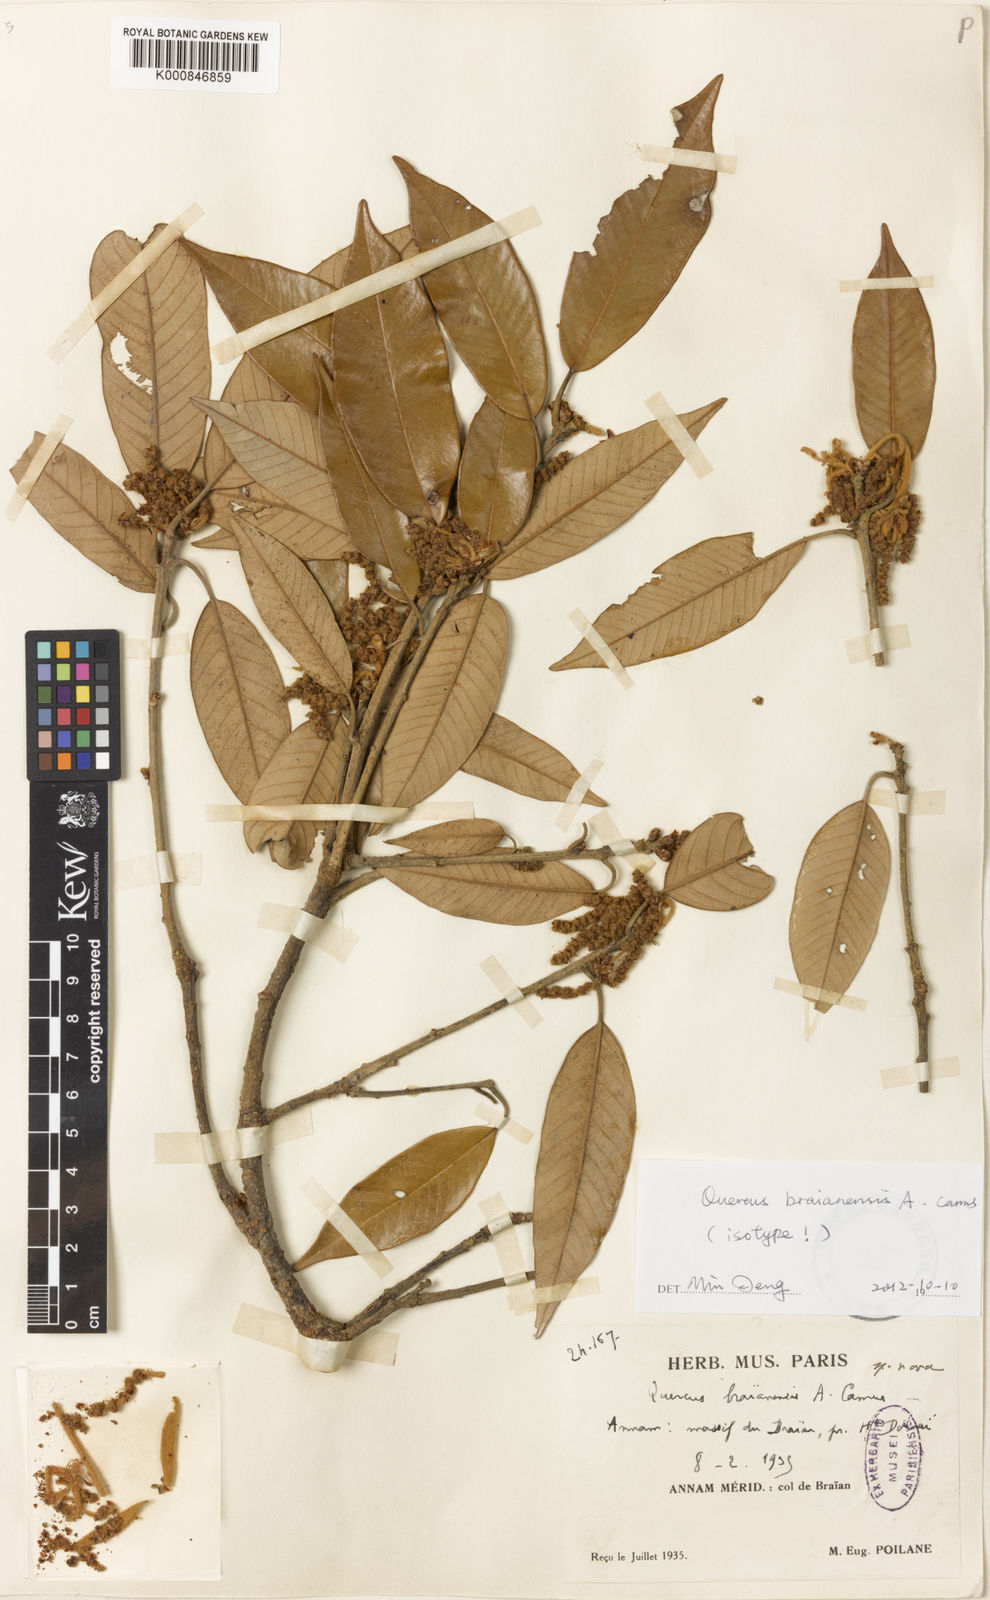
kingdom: Plantae
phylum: Tracheophyta
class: Magnoliopsida
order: Fagales
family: Fagaceae
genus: Quercus
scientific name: Quercus braianensis
